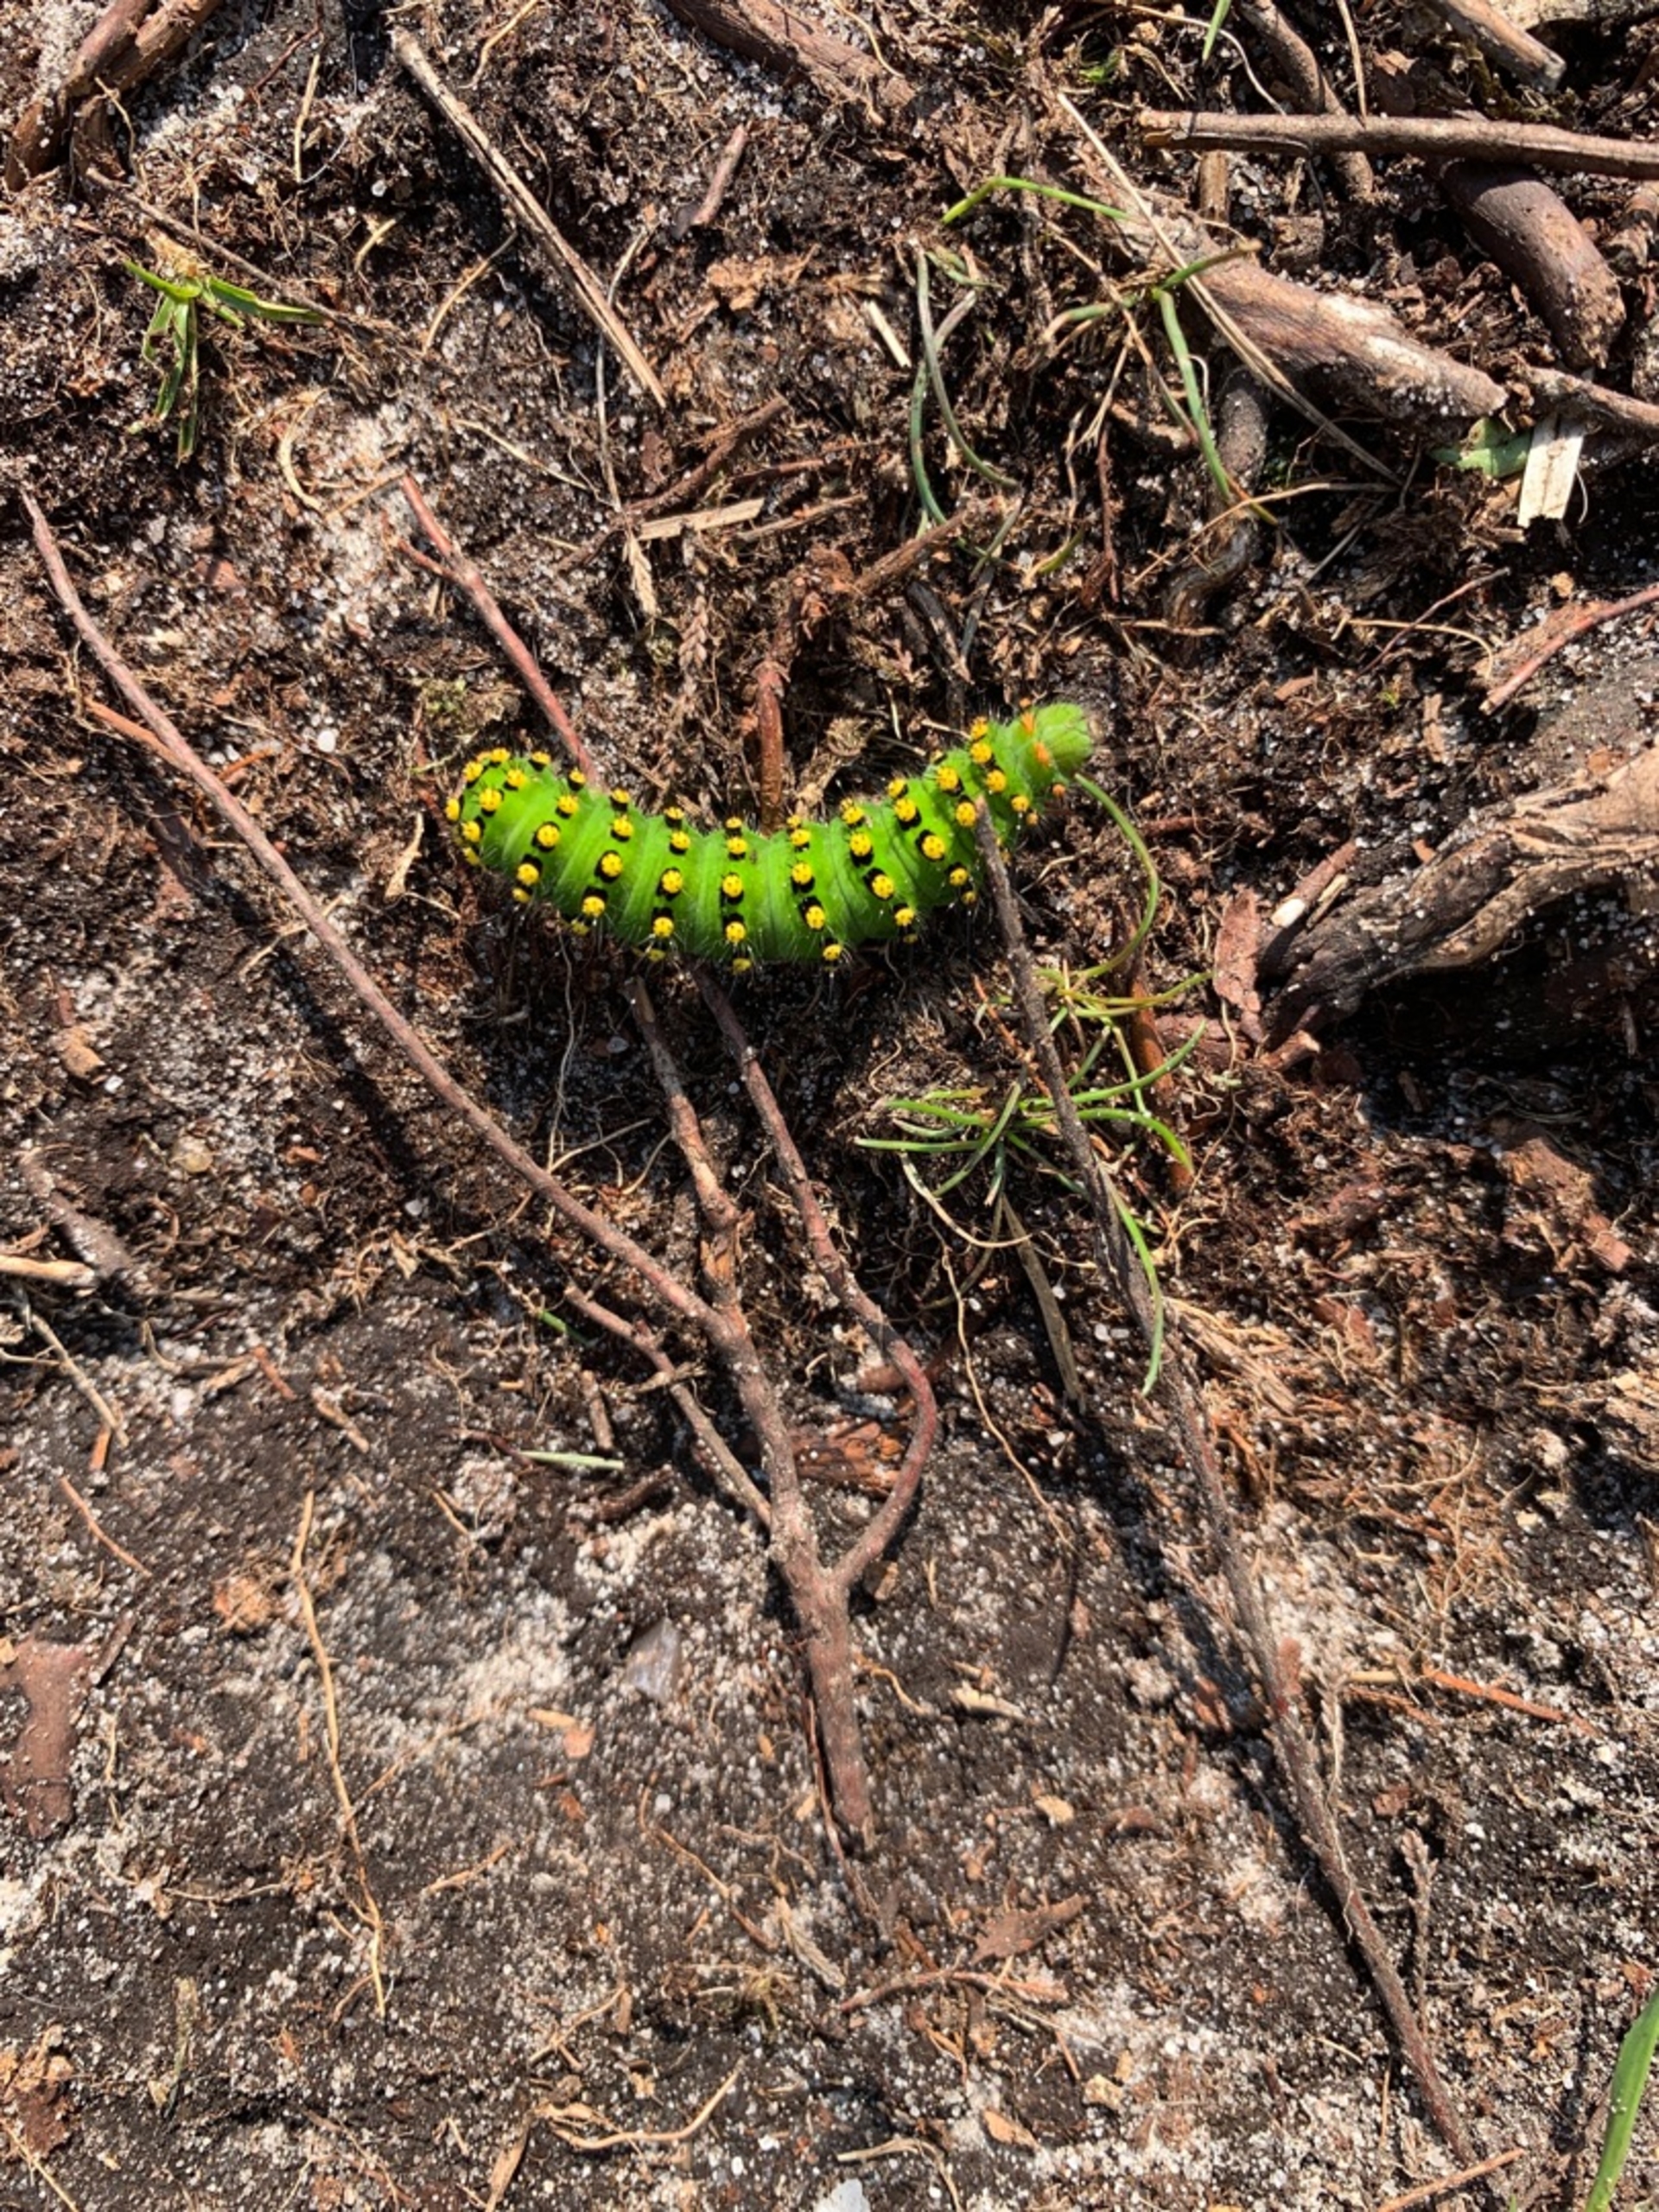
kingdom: Animalia
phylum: Arthropoda
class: Insecta
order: Lepidoptera
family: Saturniidae
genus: Saturnia
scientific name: Saturnia pavonia
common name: Lille natpåfugleøje
